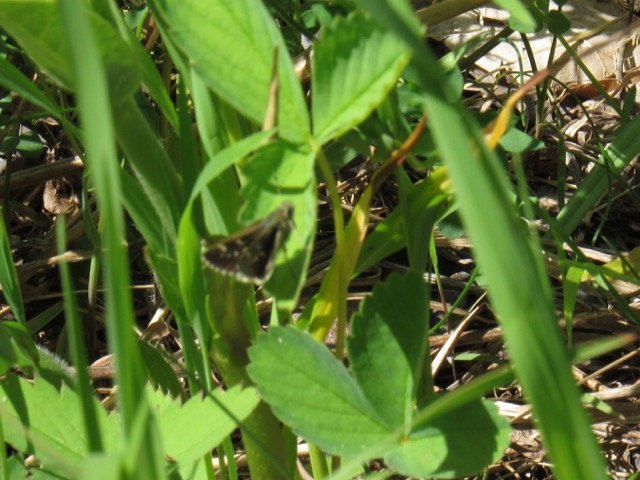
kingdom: Animalia
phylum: Arthropoda
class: Insecta
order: Lepidoptera
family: Hesperiidae
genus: Mastor
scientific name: Mastor hegon
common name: Pepper and Salt Skipper
